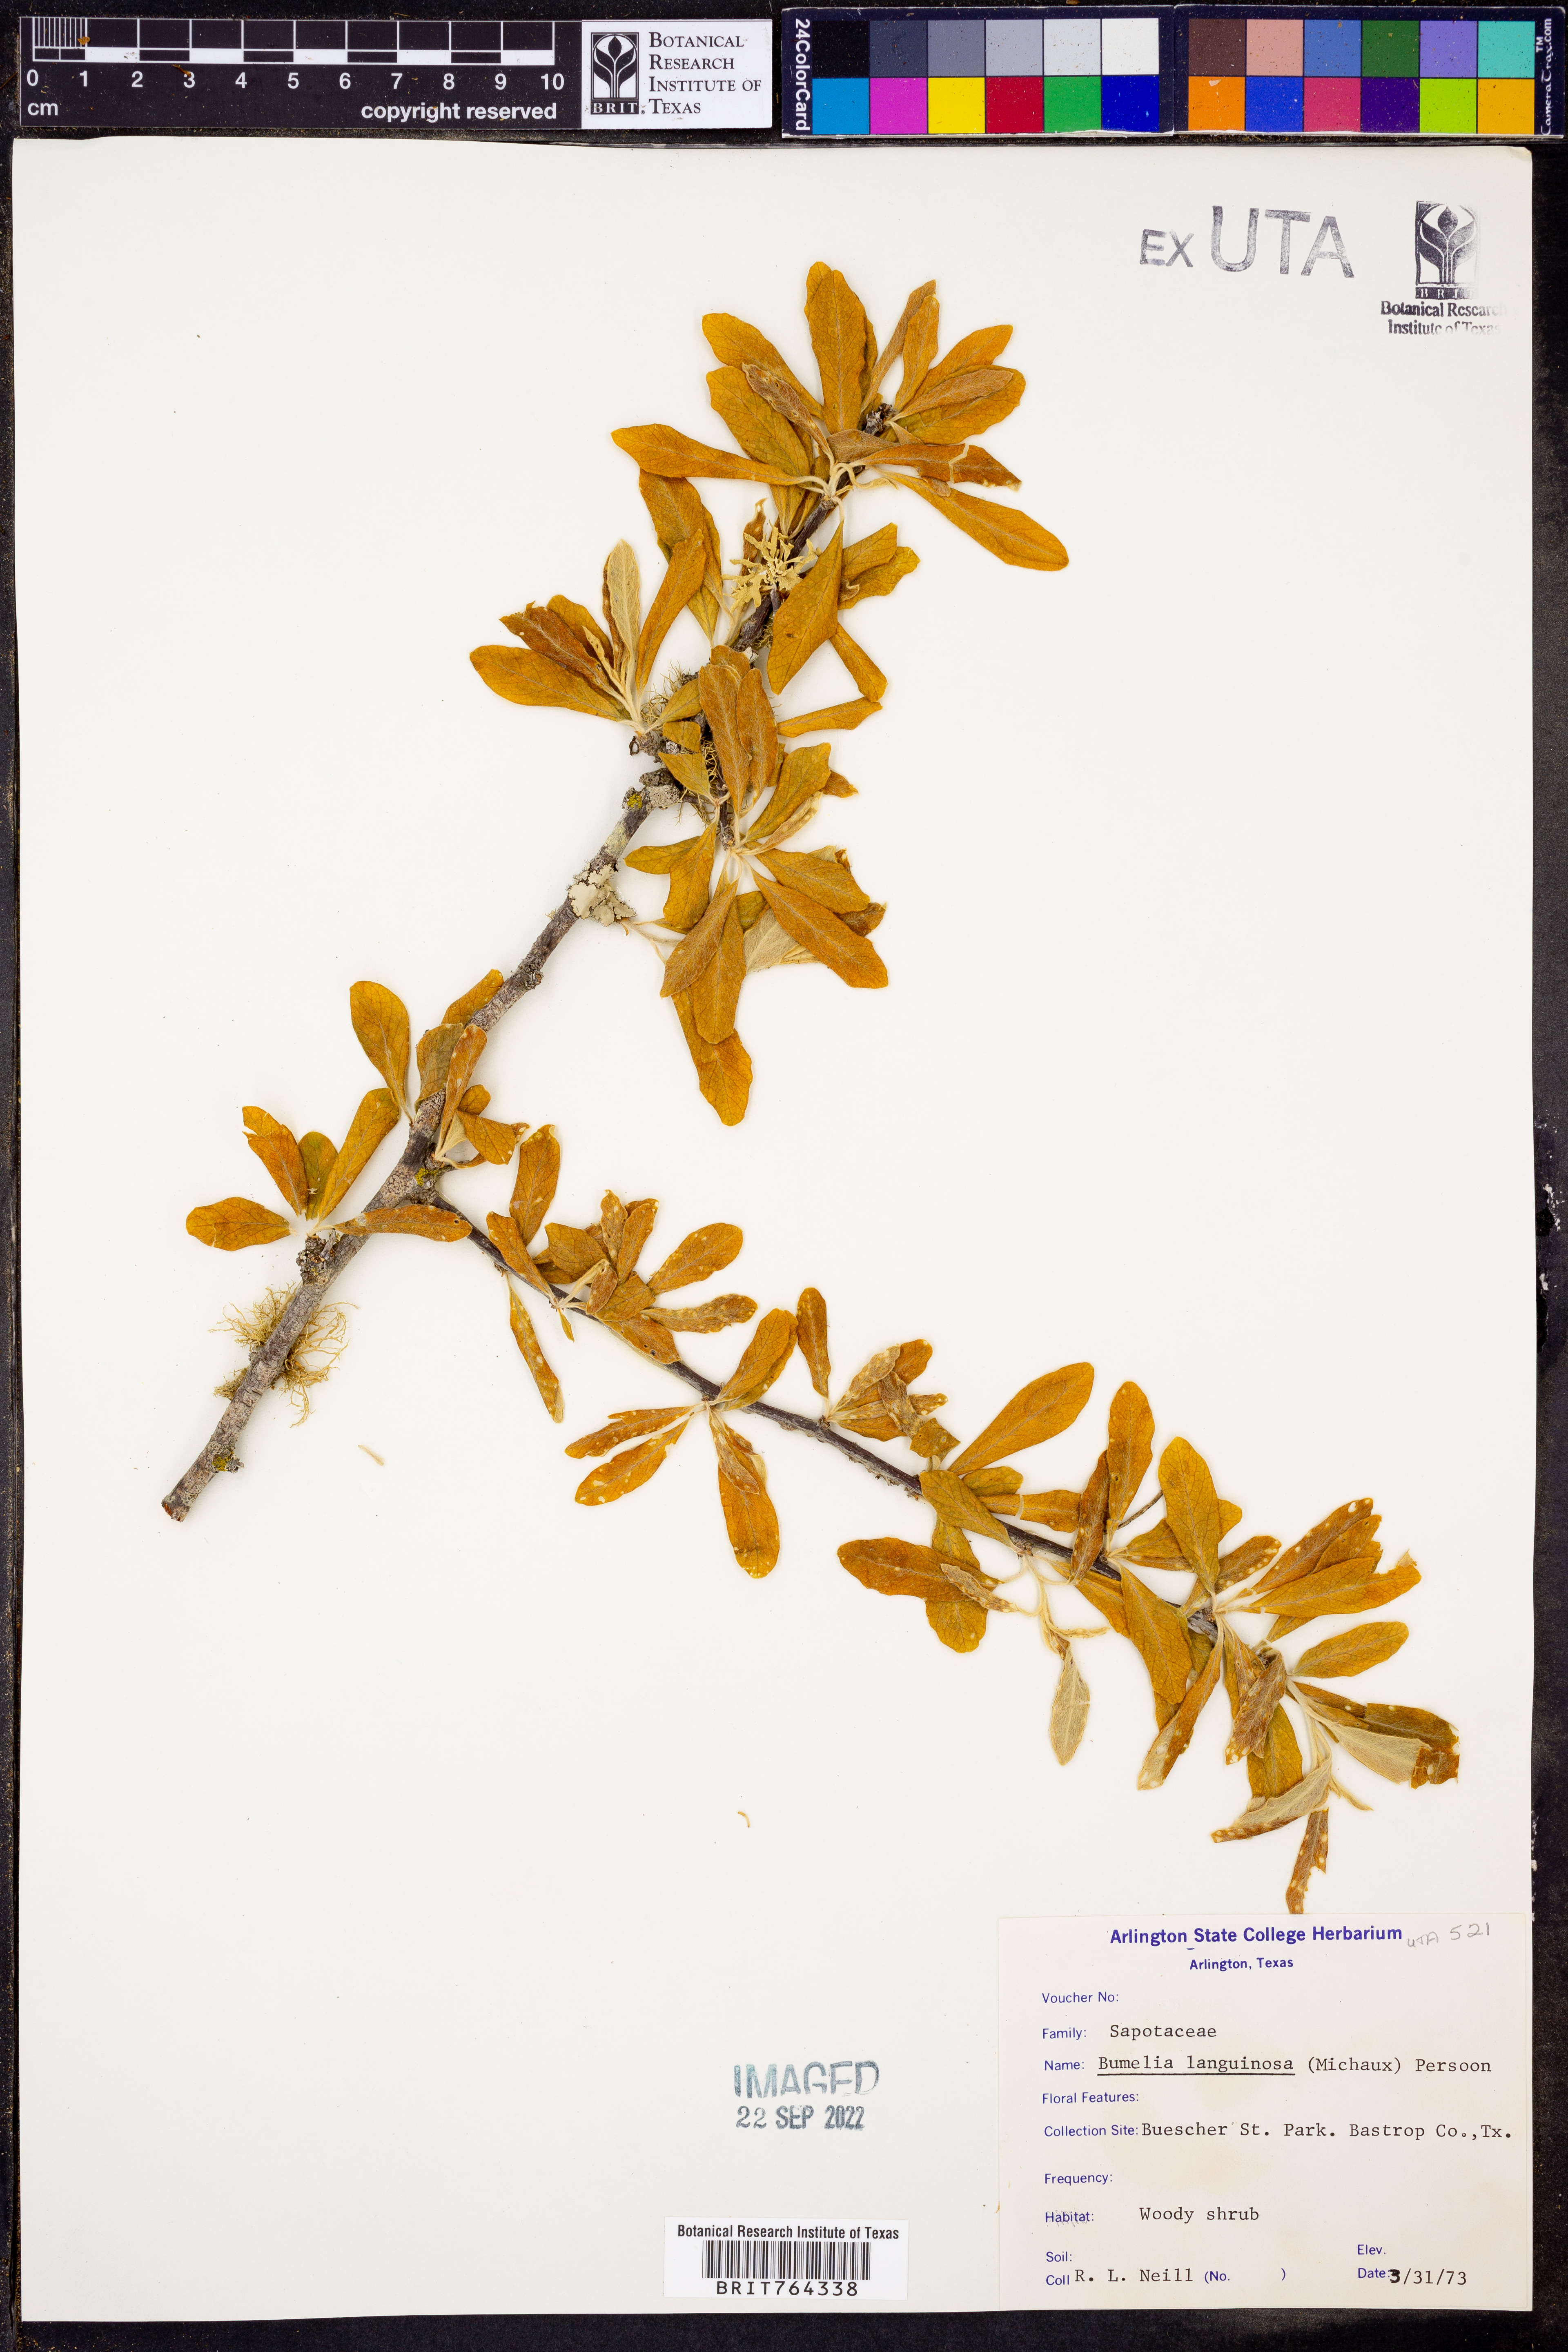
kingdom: Plantae
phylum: Tracheophyta
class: Magnoliopsida
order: Ericales
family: Sapotaceae
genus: Sideroxylon
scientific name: Sideroxylon lanuginosum
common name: Chittamwood
